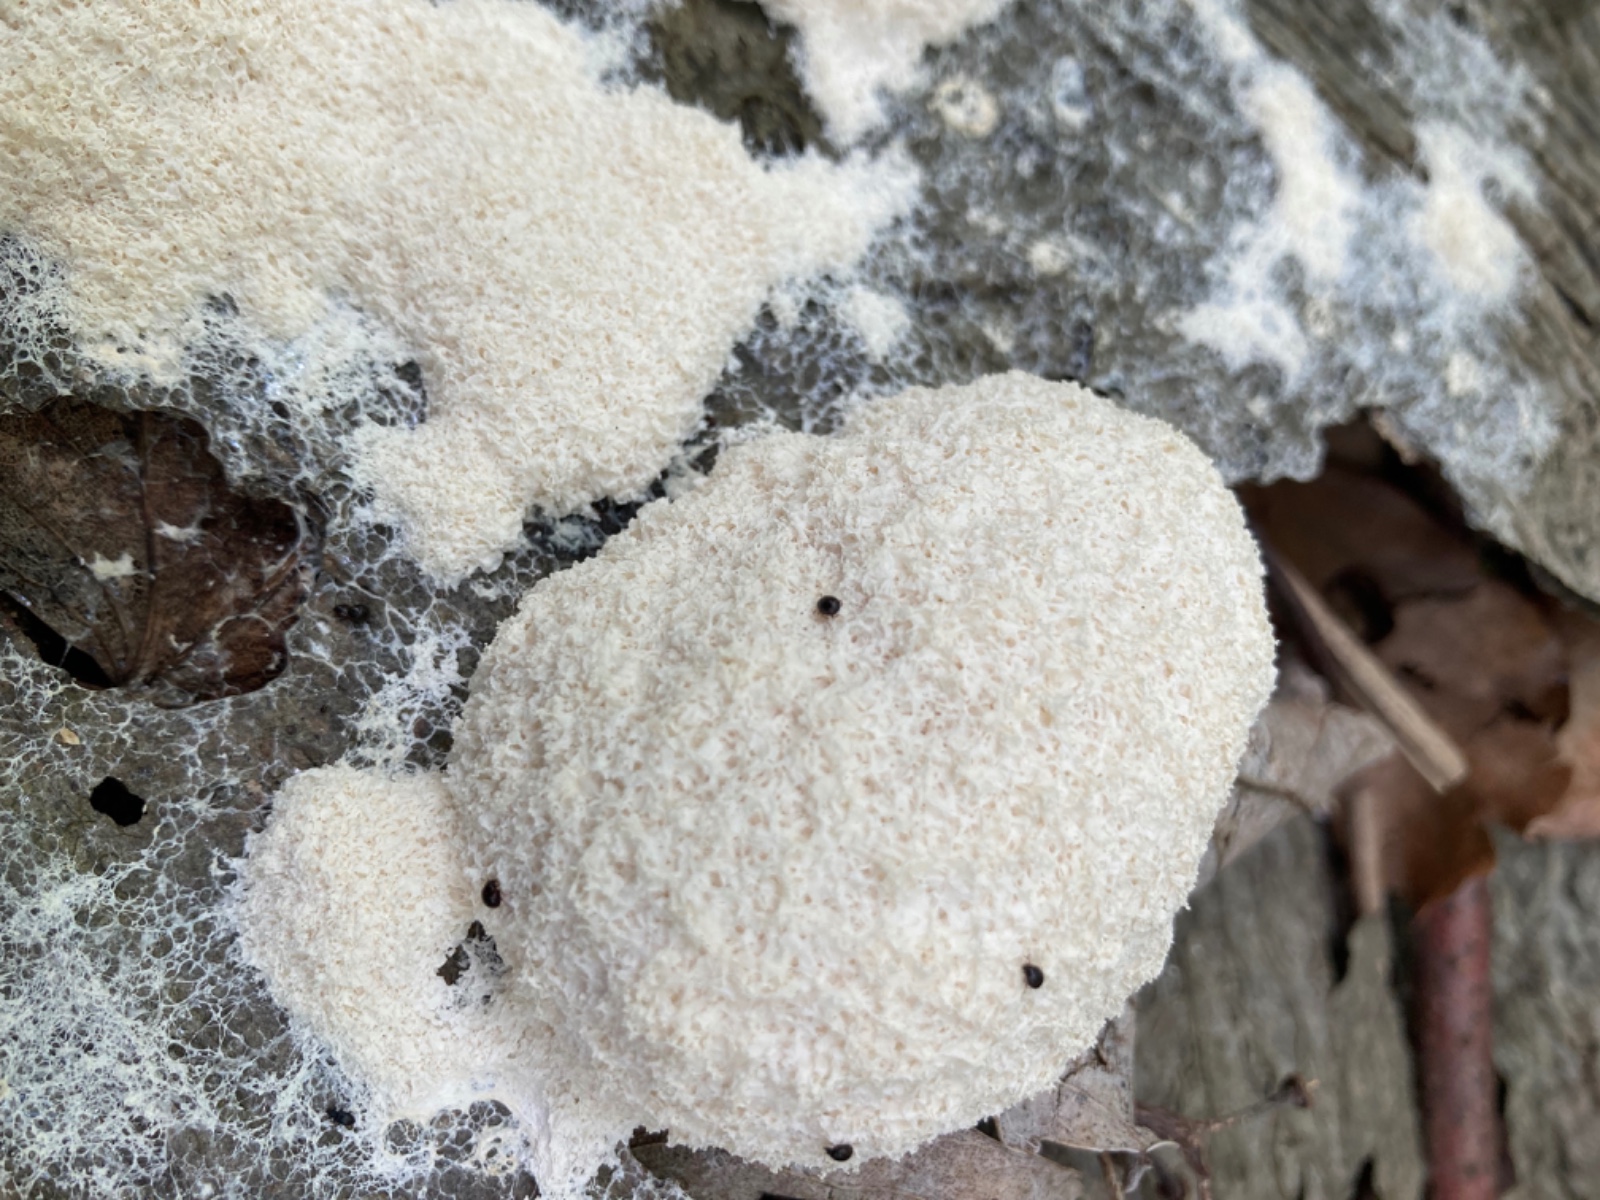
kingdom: Protozoa
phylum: Mycetozoa
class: Myxomycetes
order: Physarales
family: Physaraceae
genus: Fuligo
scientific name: Fuligo
